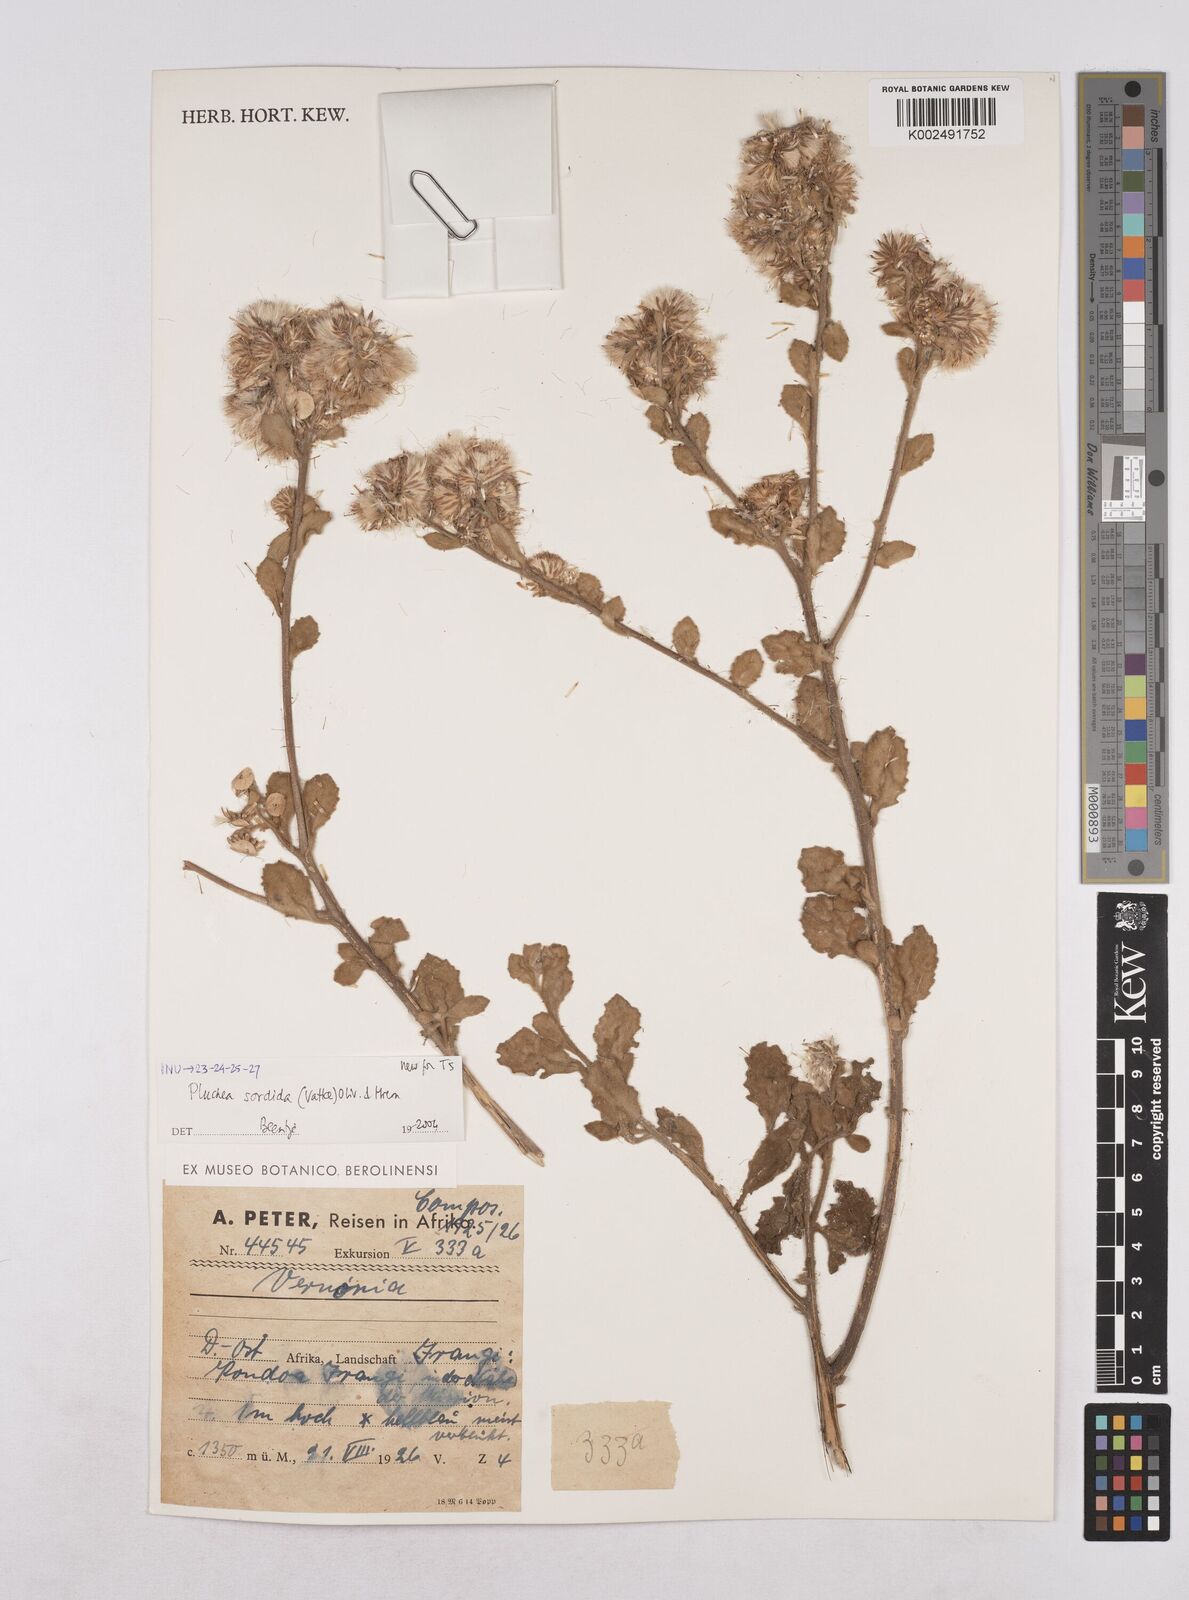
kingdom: Plantae
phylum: Tracheophyta
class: Magnoliopsida
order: Asterales
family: Asteraceae
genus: Pluchea
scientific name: Pluchea sordida
